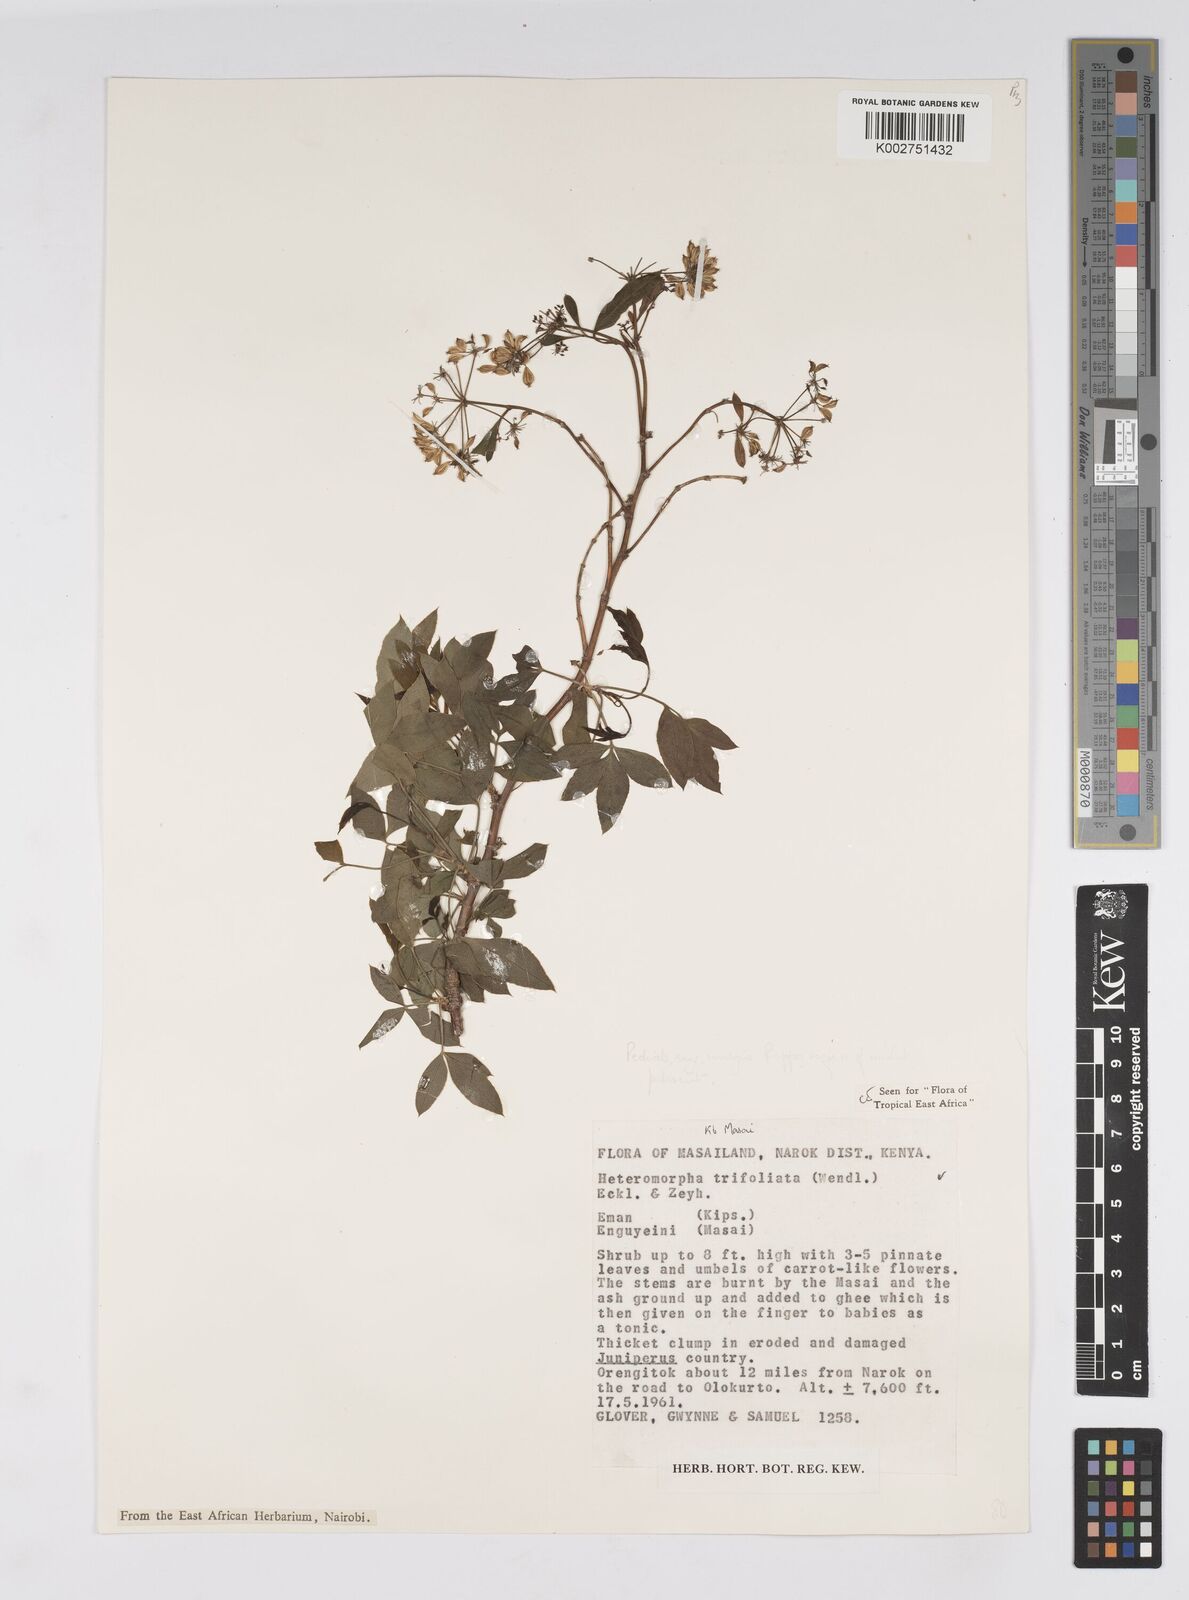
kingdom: Plantae
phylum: Tracheophyta
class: Magnoliopsida
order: Apiales
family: Apiaceae
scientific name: Apiaceae
